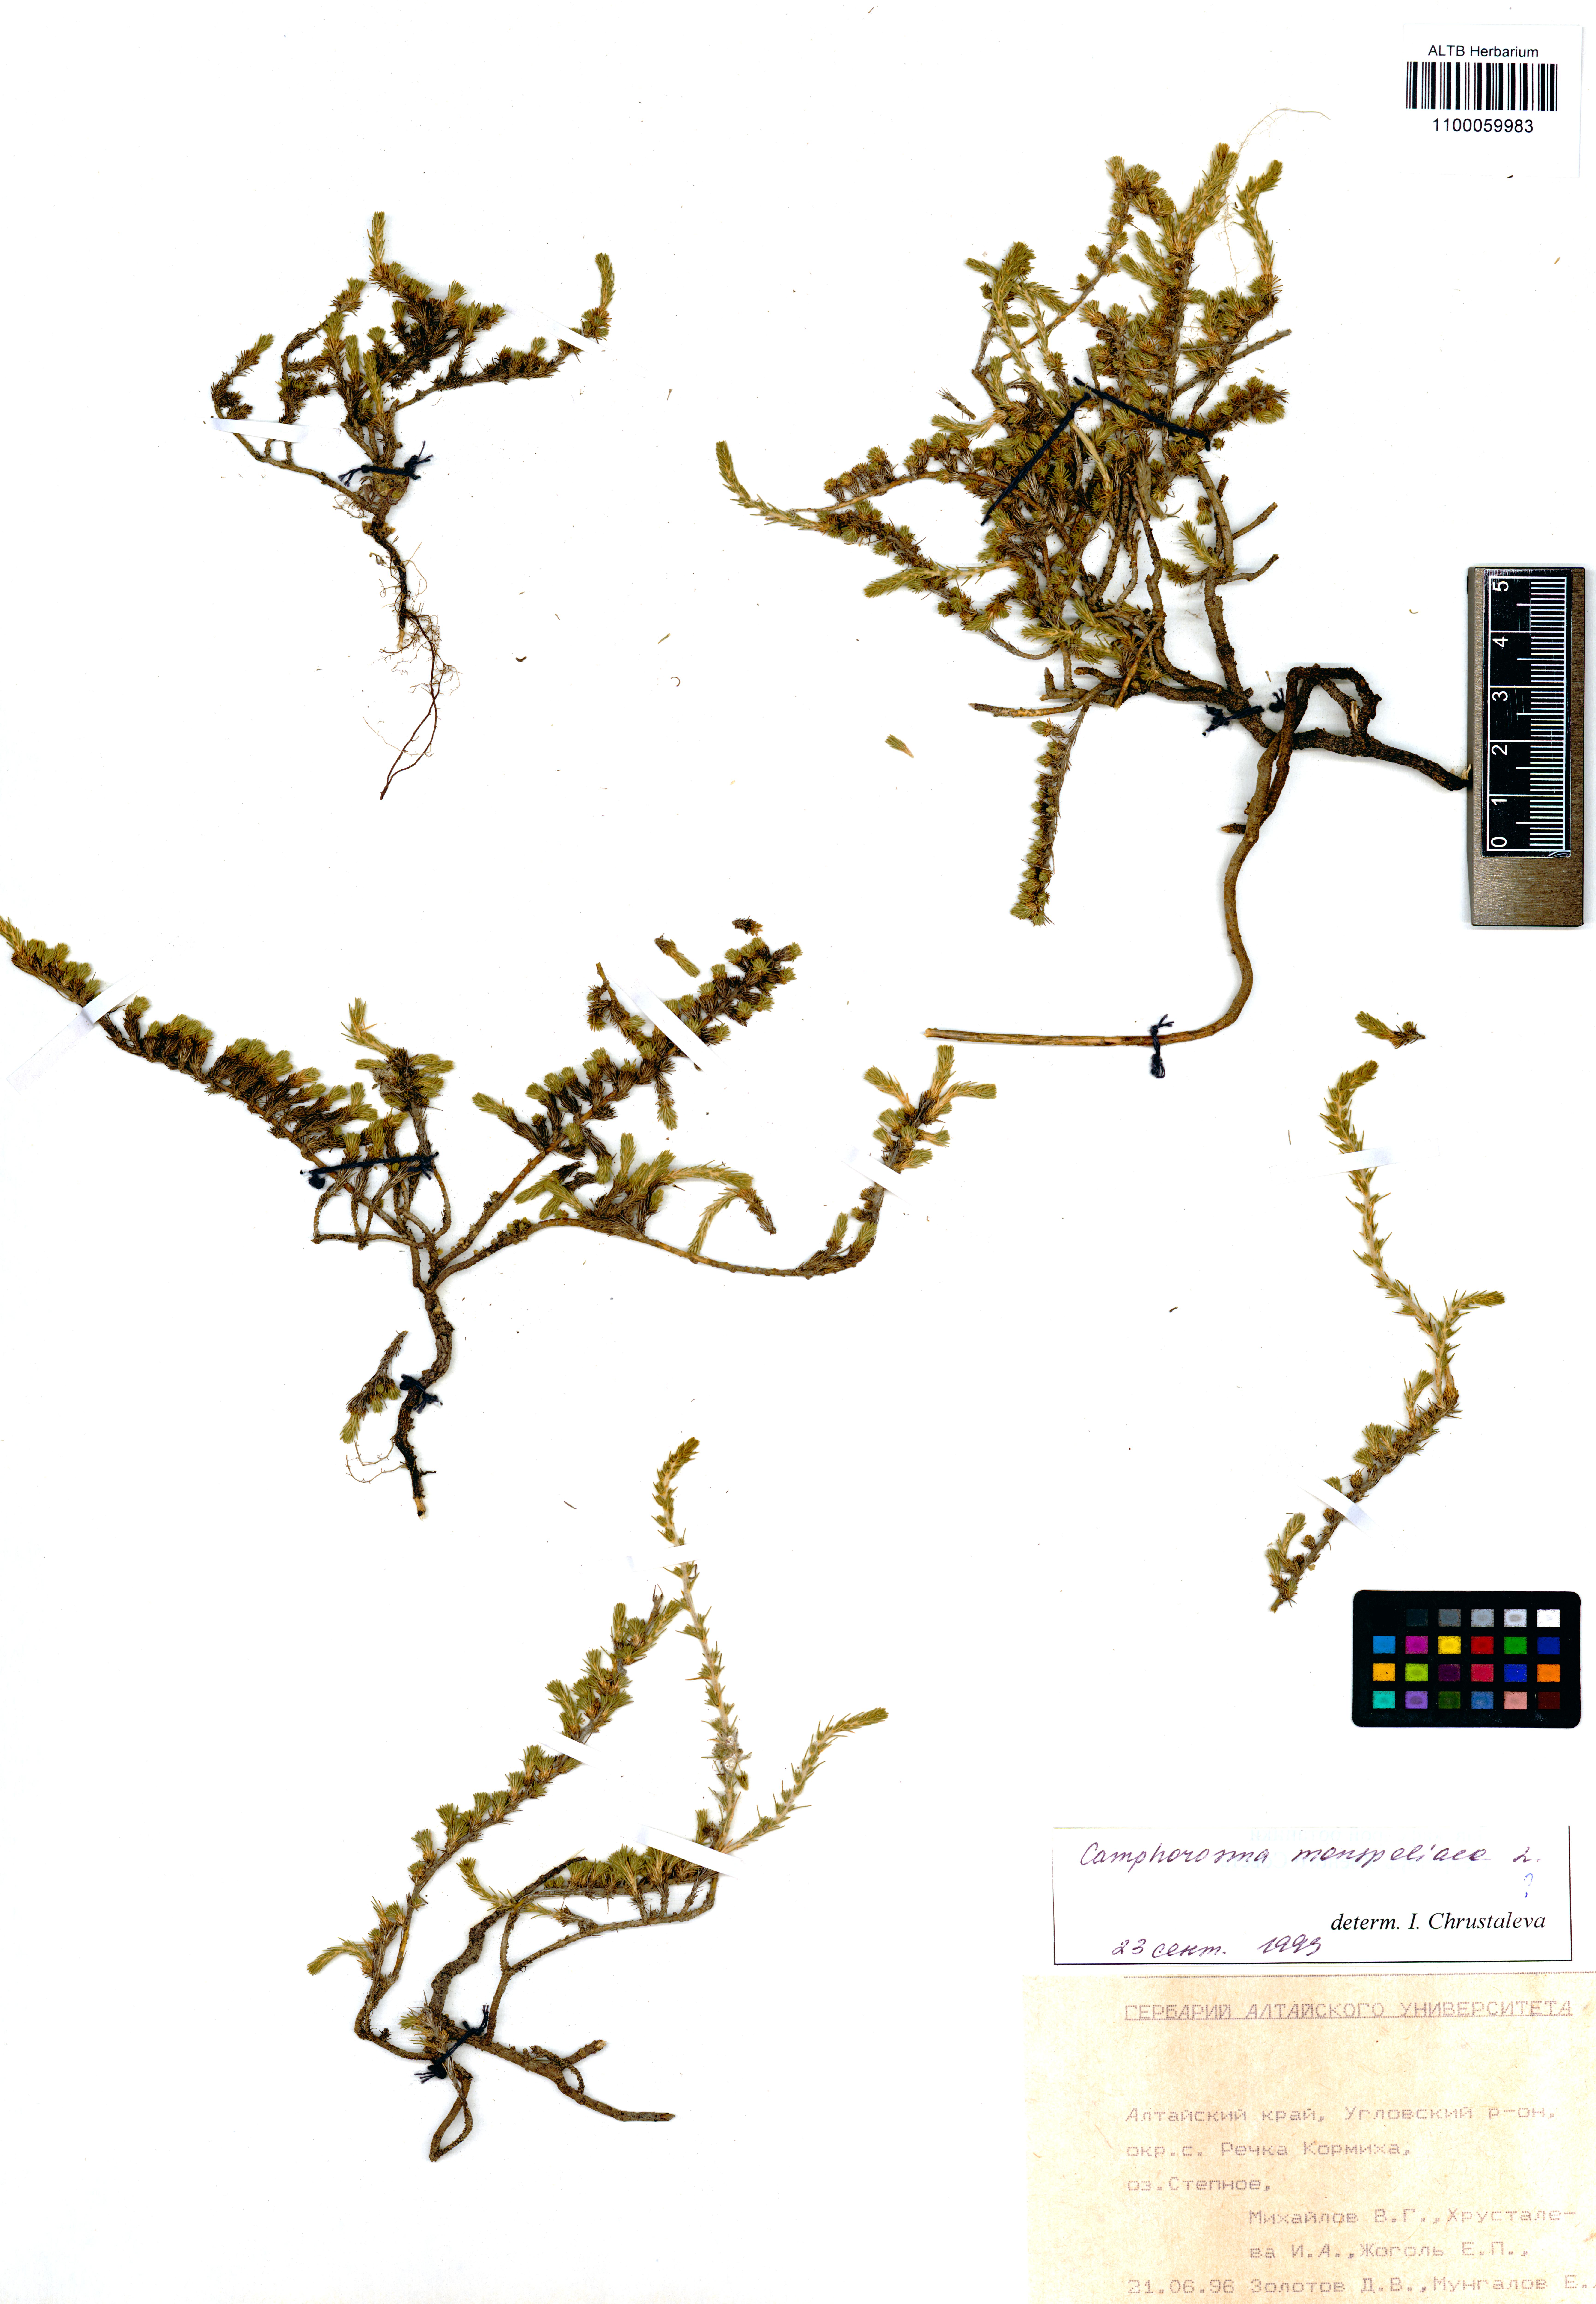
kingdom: Plantae
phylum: Tracheophyta
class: Magnoliopsida
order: Caryophyllales
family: Amaranthaceae
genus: Camphorosma
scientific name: Camphorosma monspeliaca
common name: Camphorfume
